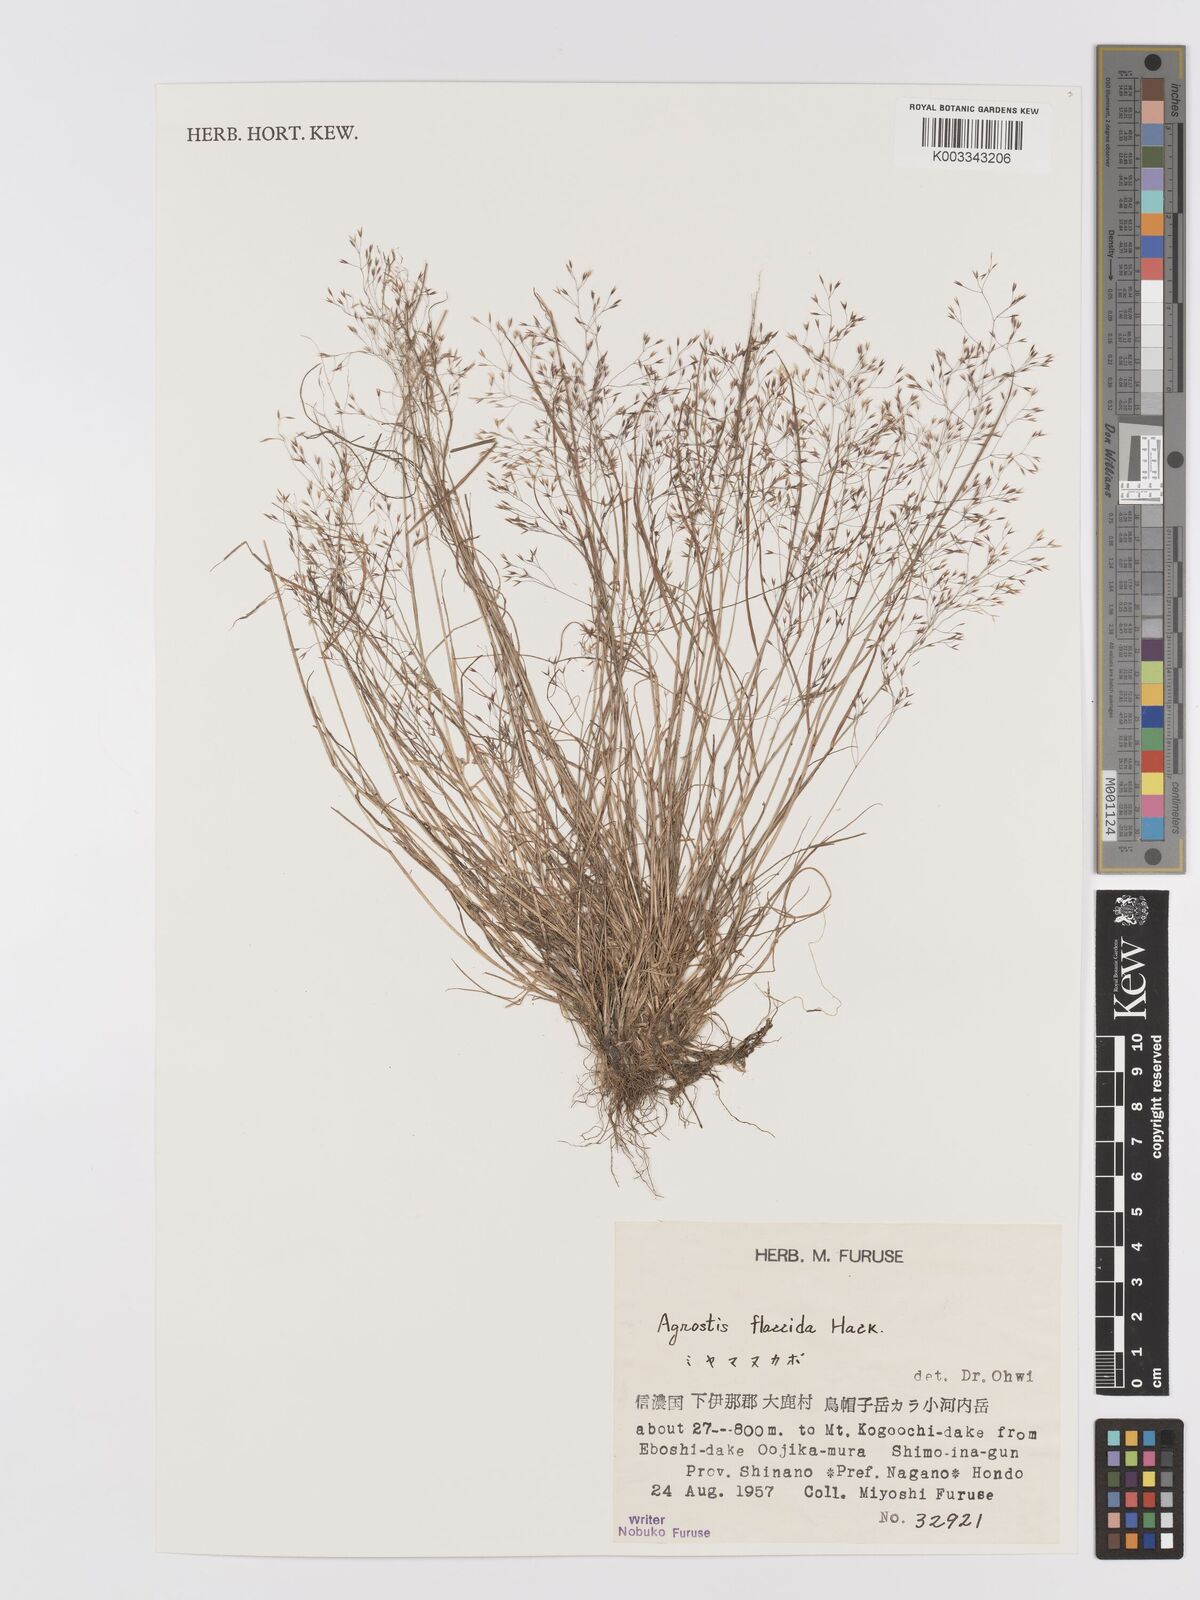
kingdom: Plantae
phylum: Tracheophyta
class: Liliopsida
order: Poales
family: Poaceae
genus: Agrostis
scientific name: Agrostis flaccida
